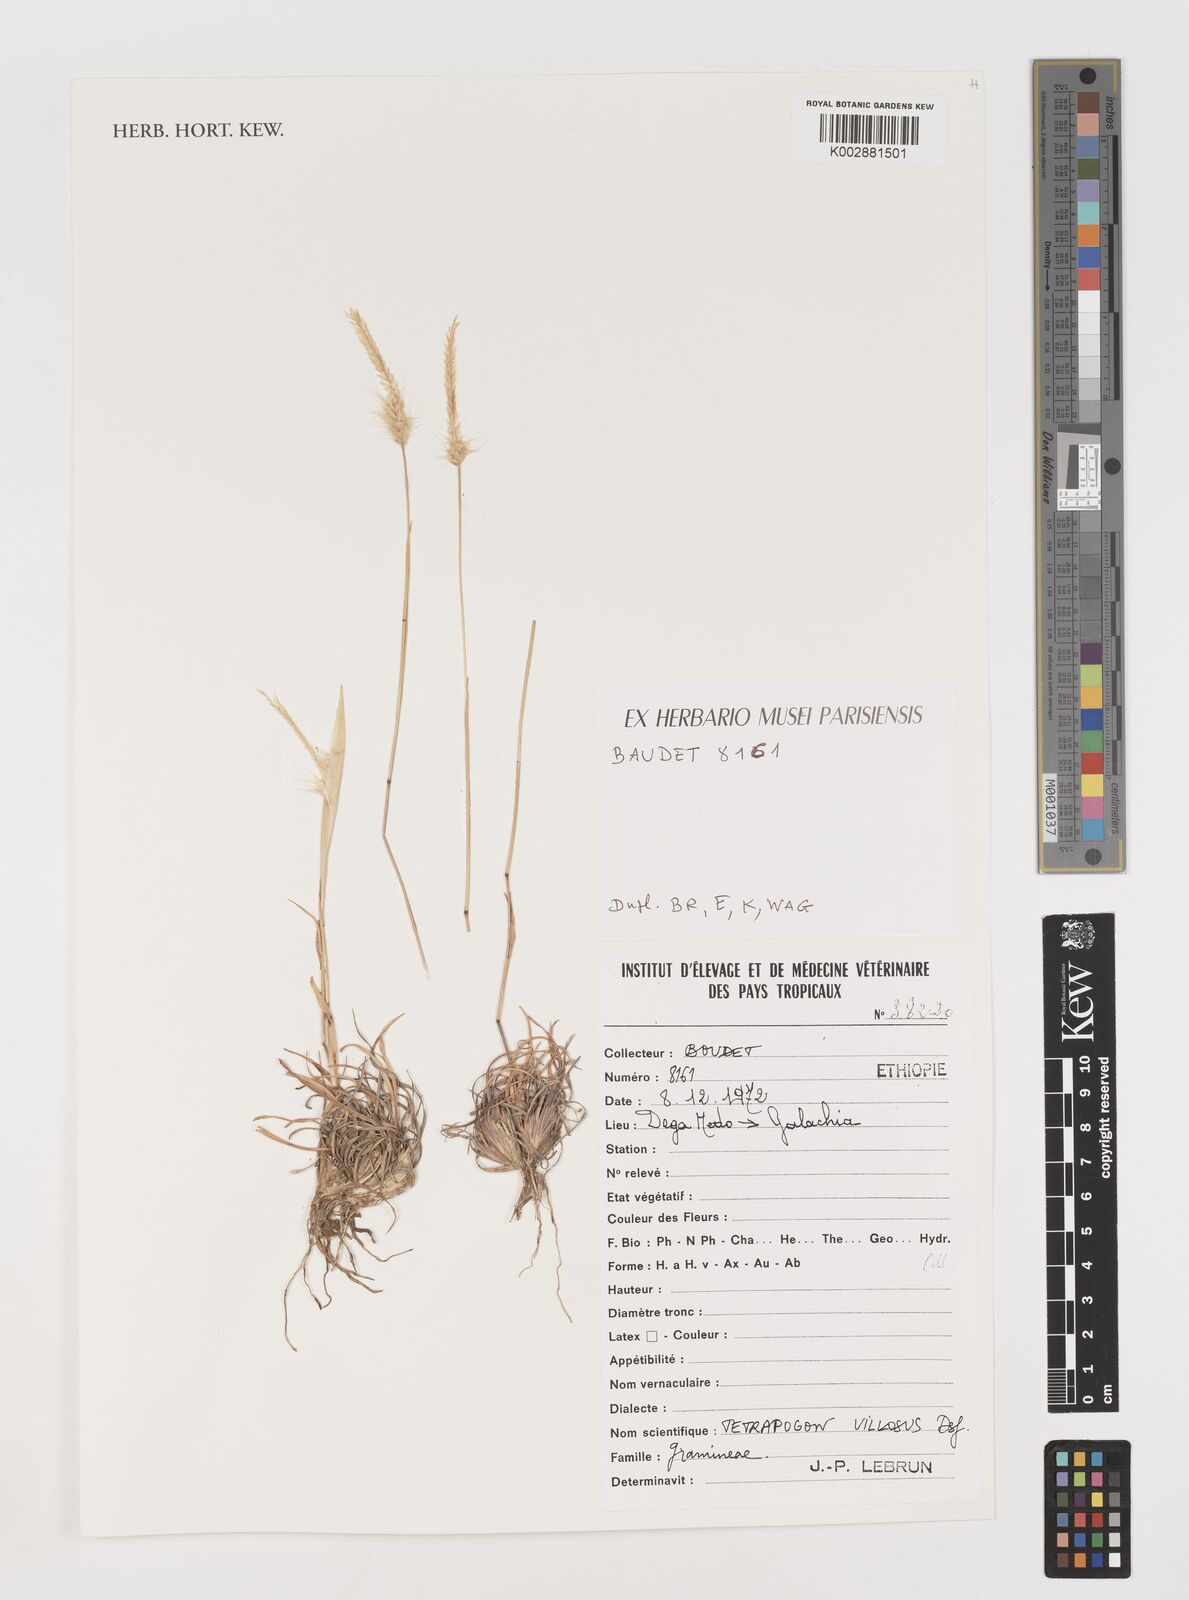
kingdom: Plantae
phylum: Tracheophyta
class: Liliopsida
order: Poales
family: Poaceae
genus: Tetrapogon
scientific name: Tetrapogon villosus
